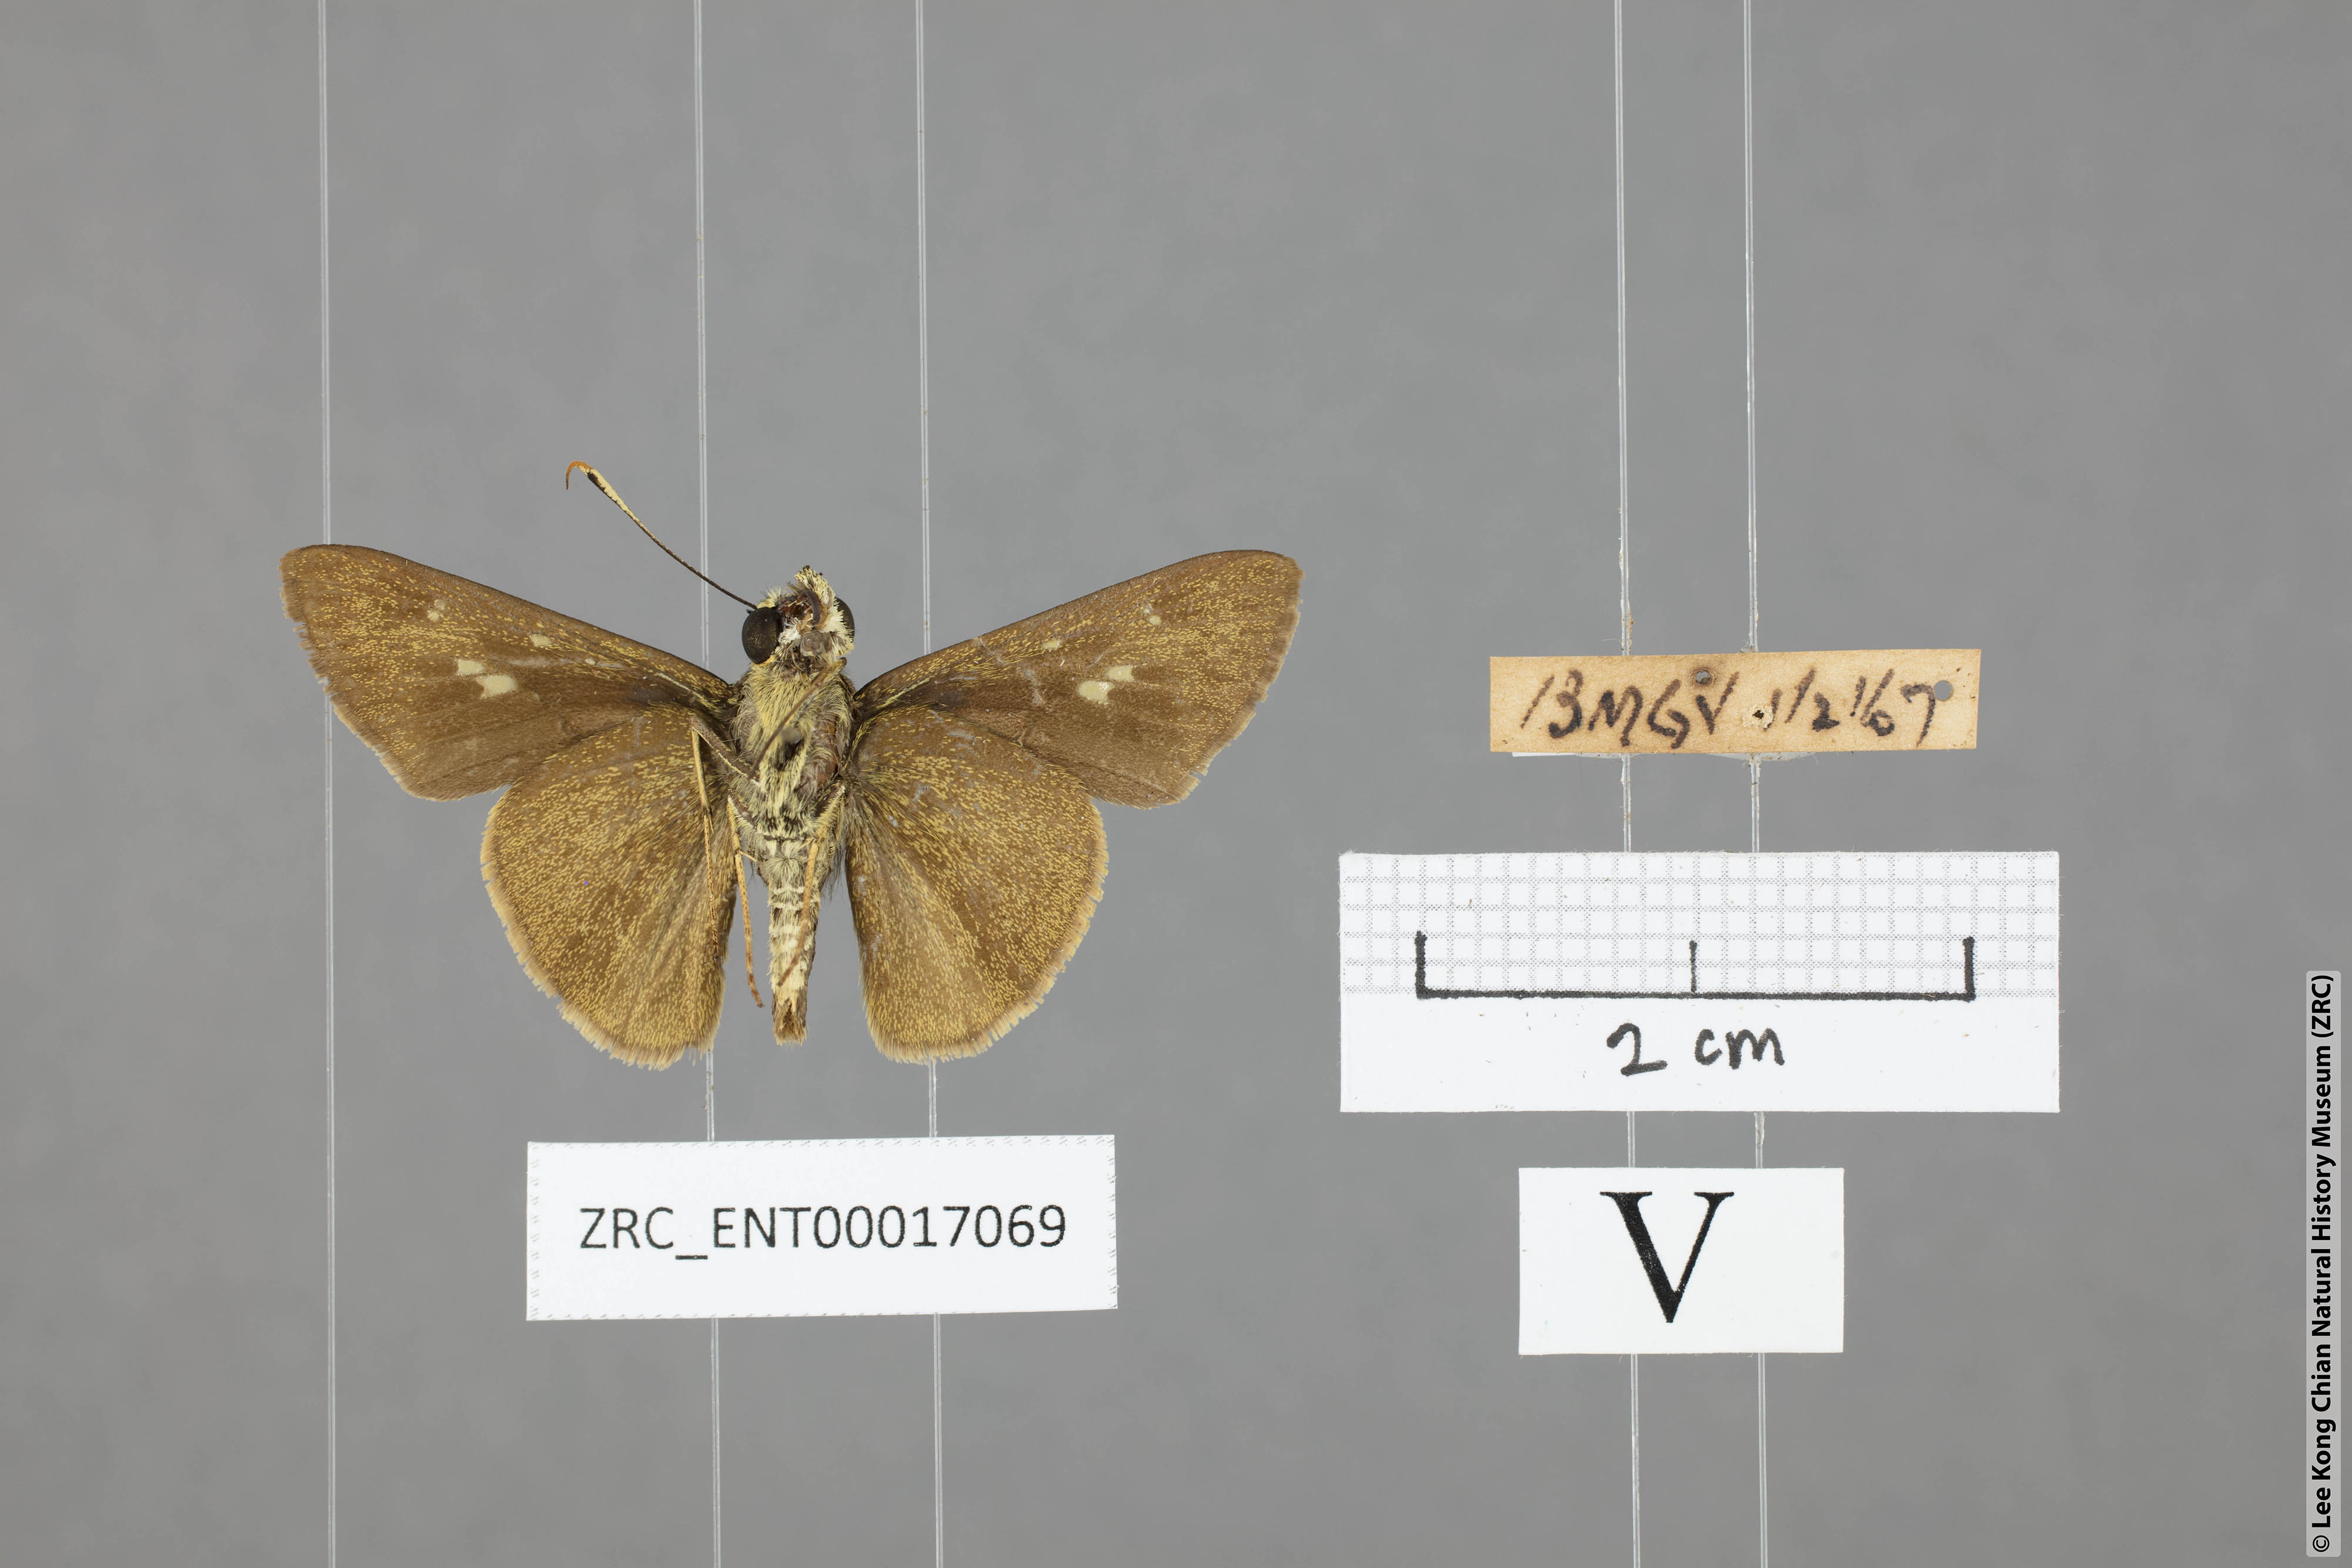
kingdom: Animalia
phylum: Arthropoda
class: Insecta
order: Lepidoptera
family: Hesperiidae
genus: Halpe
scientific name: Halpe sikkima
